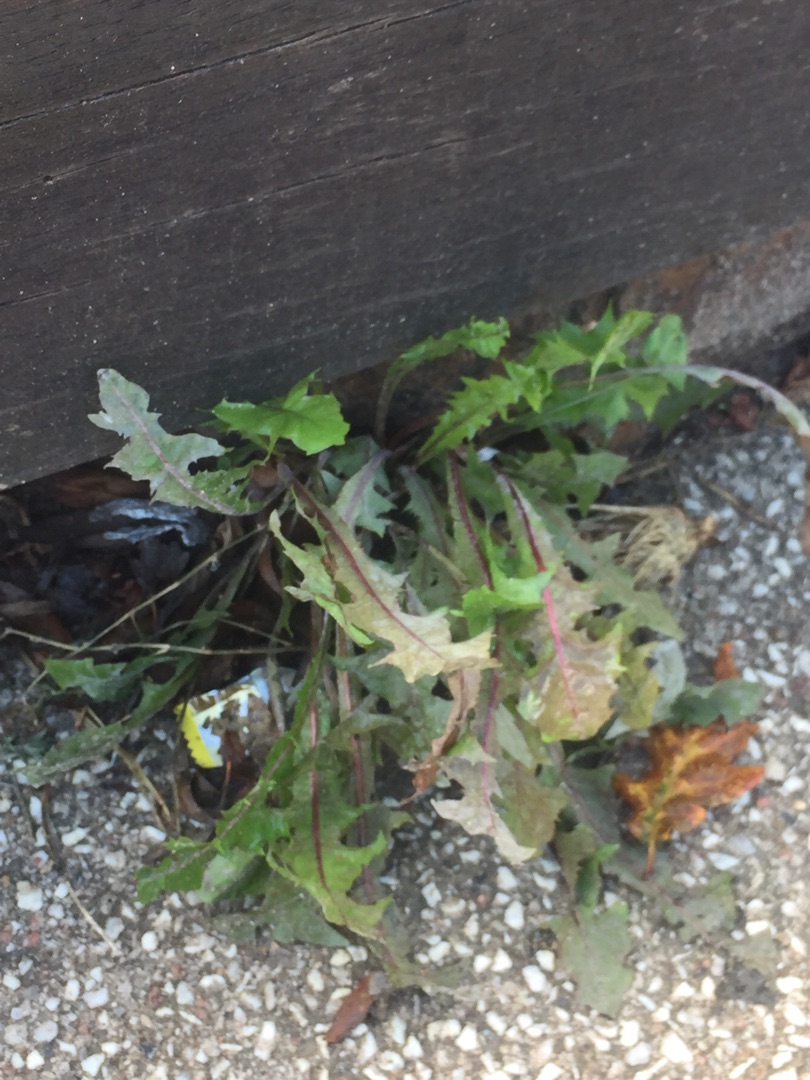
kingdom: Plantae
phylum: Tracheophyta
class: Magnoliopsida
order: Asterales
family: Asteraceae
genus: Taraxacum
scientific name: Taraxacum
